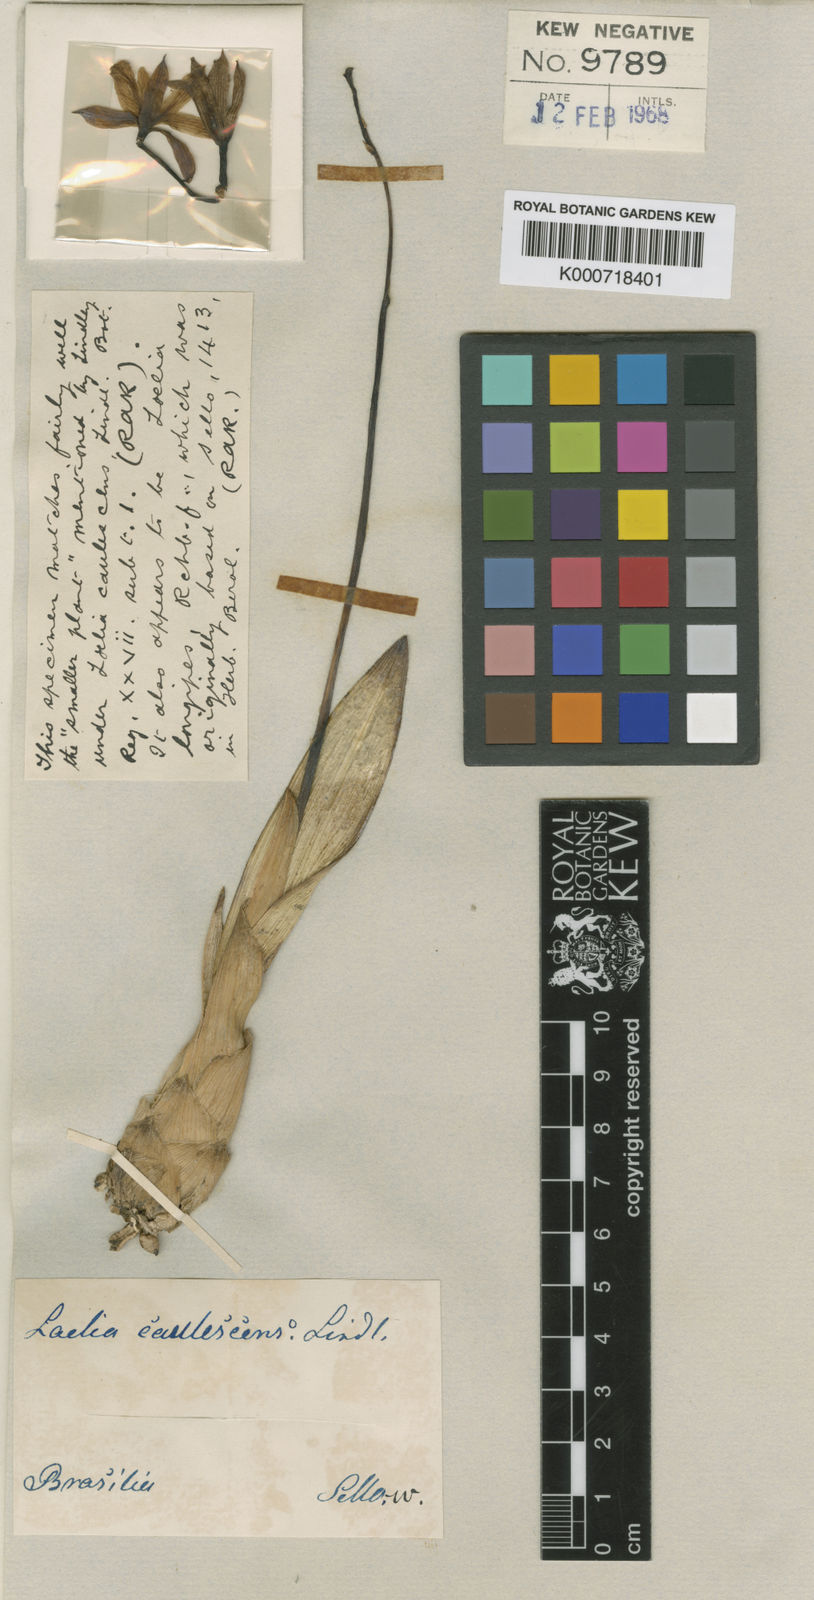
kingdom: Plantae
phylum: Tracheophyta
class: Liliopsida
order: Asparagales
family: Orchidaceae
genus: Cattleya
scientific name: Cattleya caulescens
